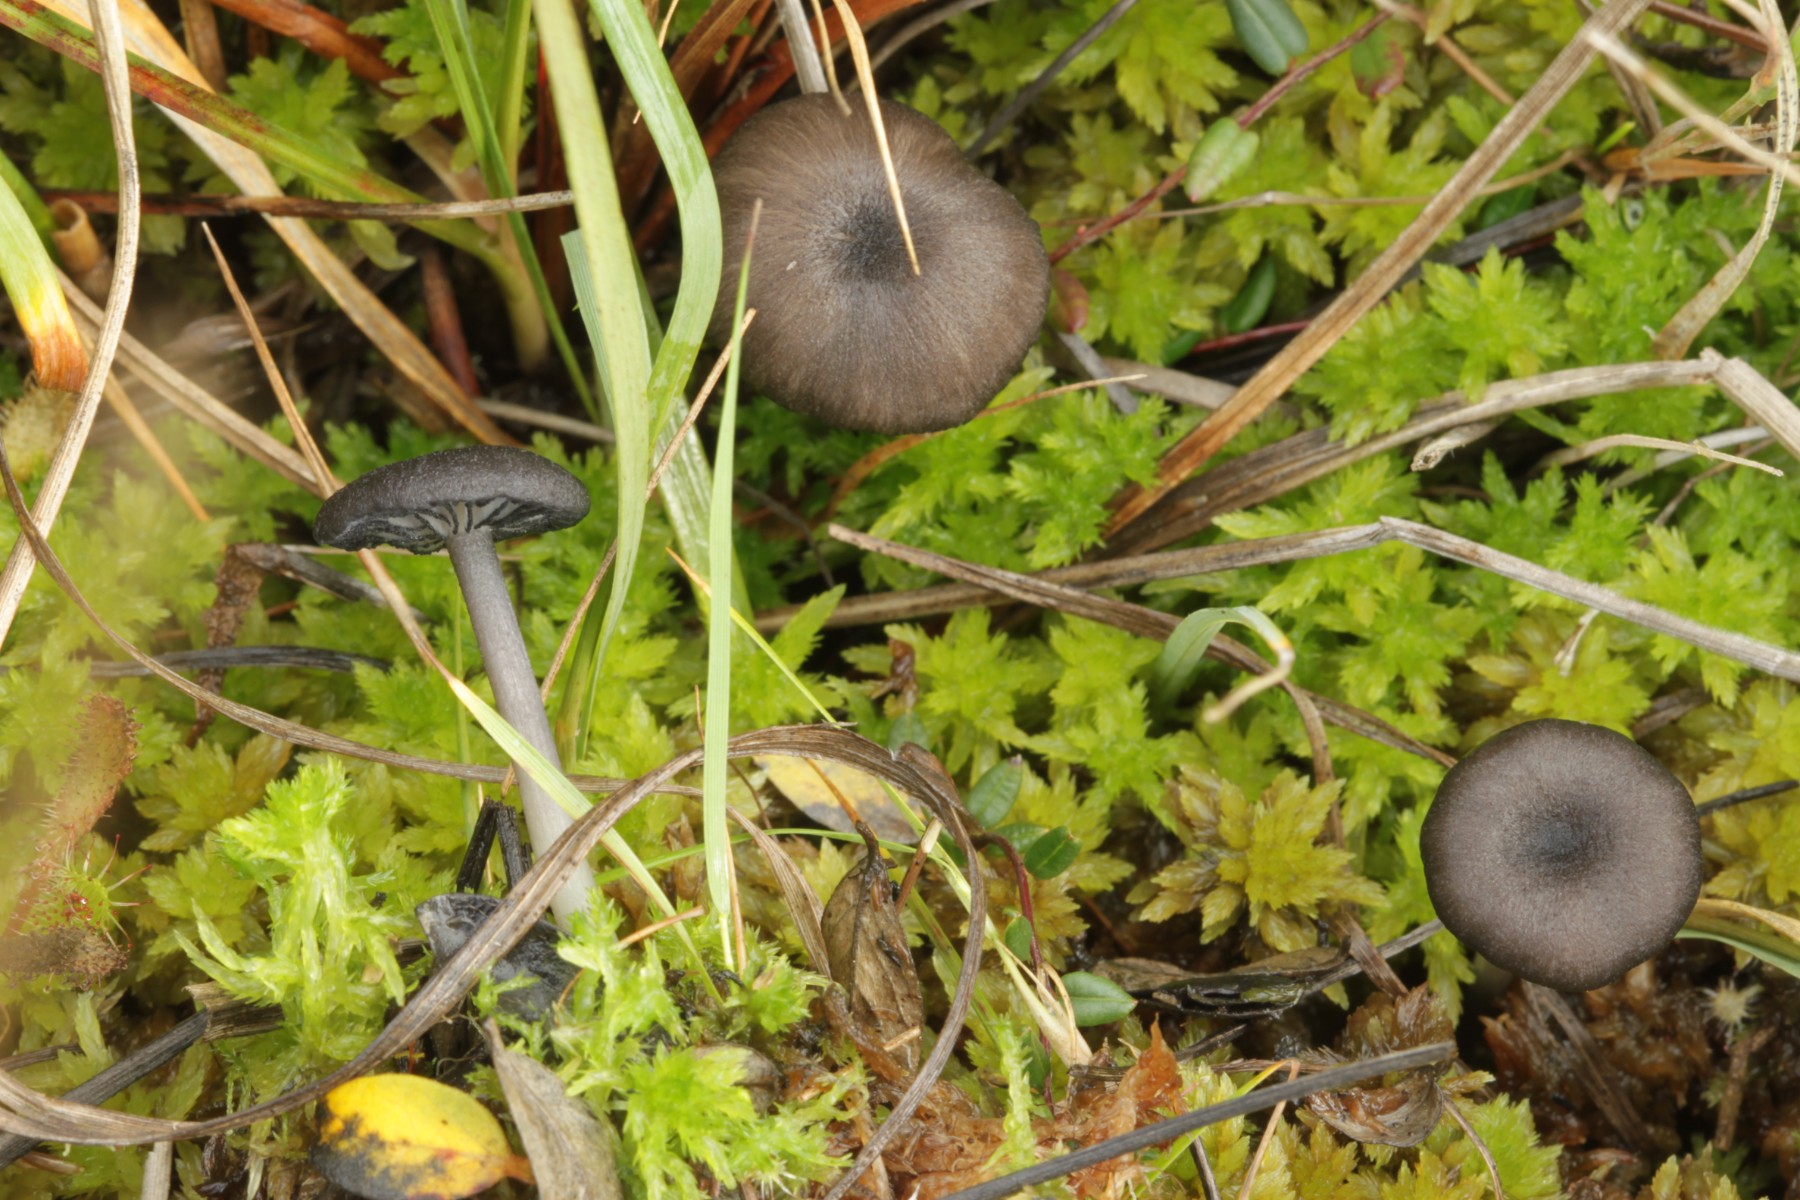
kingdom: Fungi
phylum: Basidiomycota
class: Agaricomycetes
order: Agaricales
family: Entolomataceae
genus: Entoloma
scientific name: Entoloma
